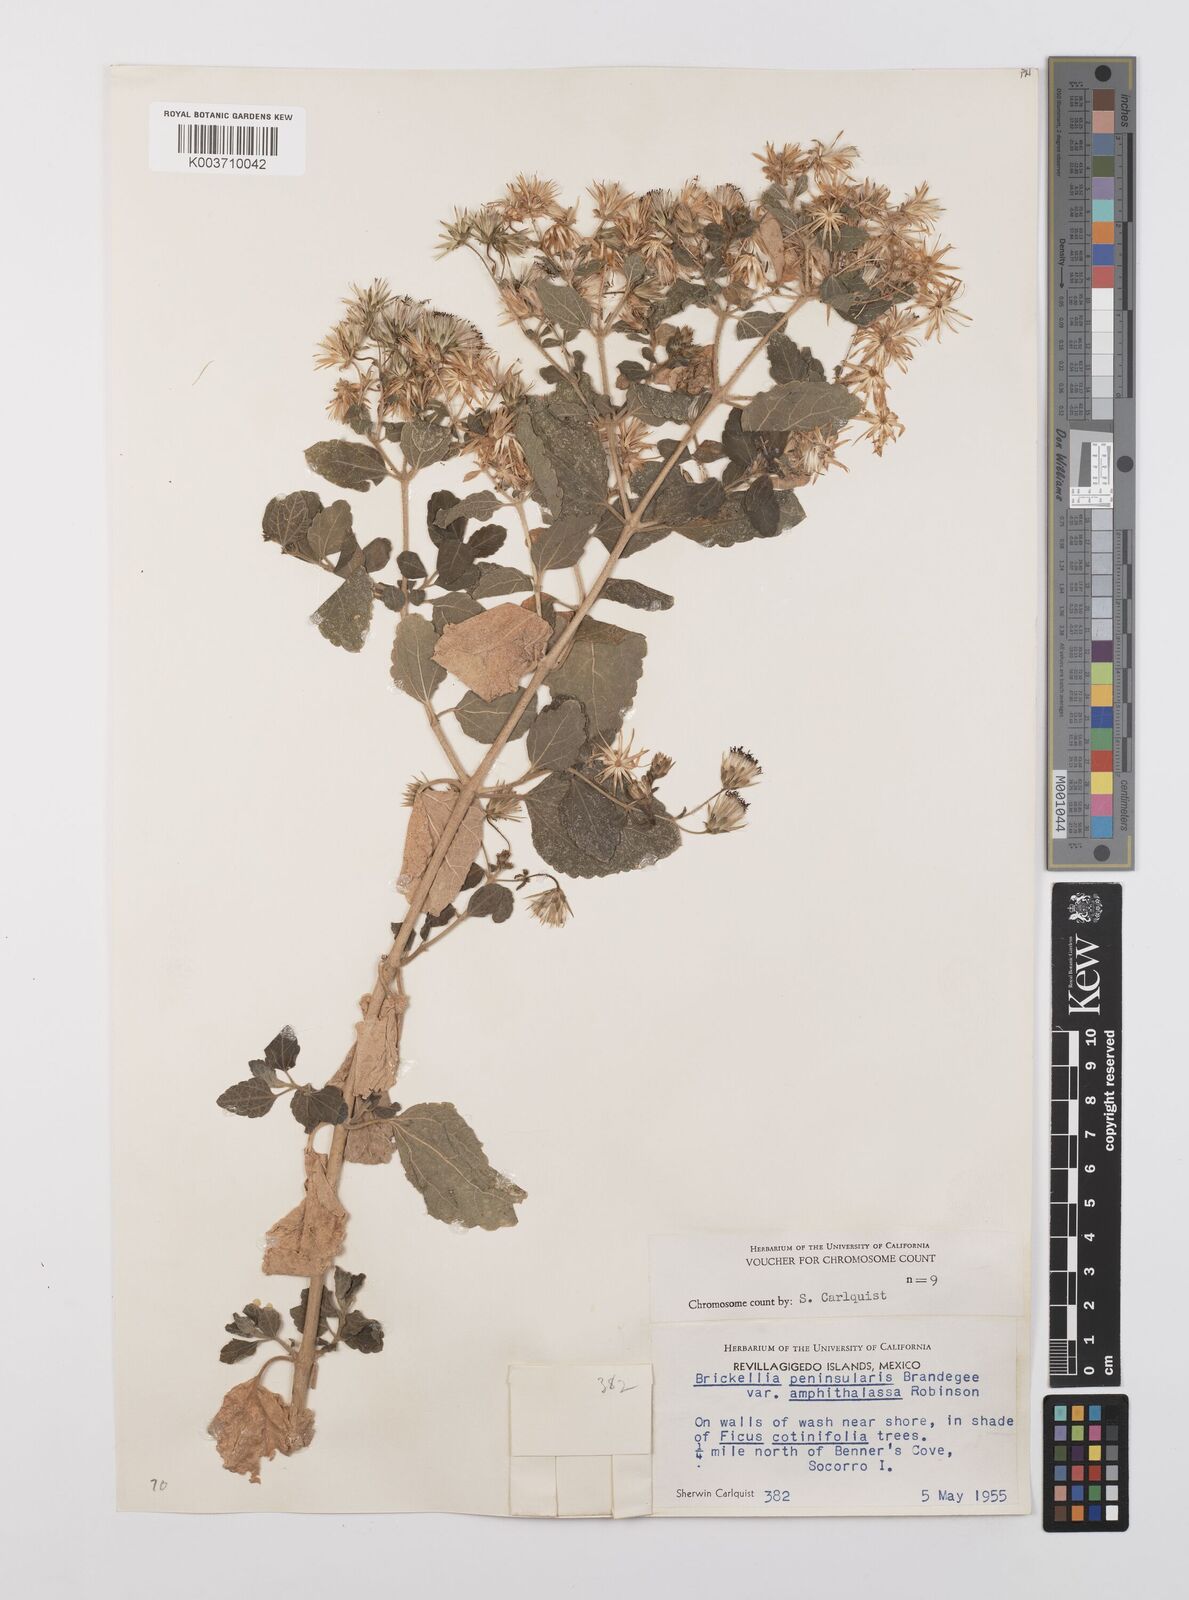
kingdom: Plantae
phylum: Tracheophyta
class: Magnoliopsida
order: Asterales
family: Asteraceae
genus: Brickellia
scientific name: Brickellia peninsularis
